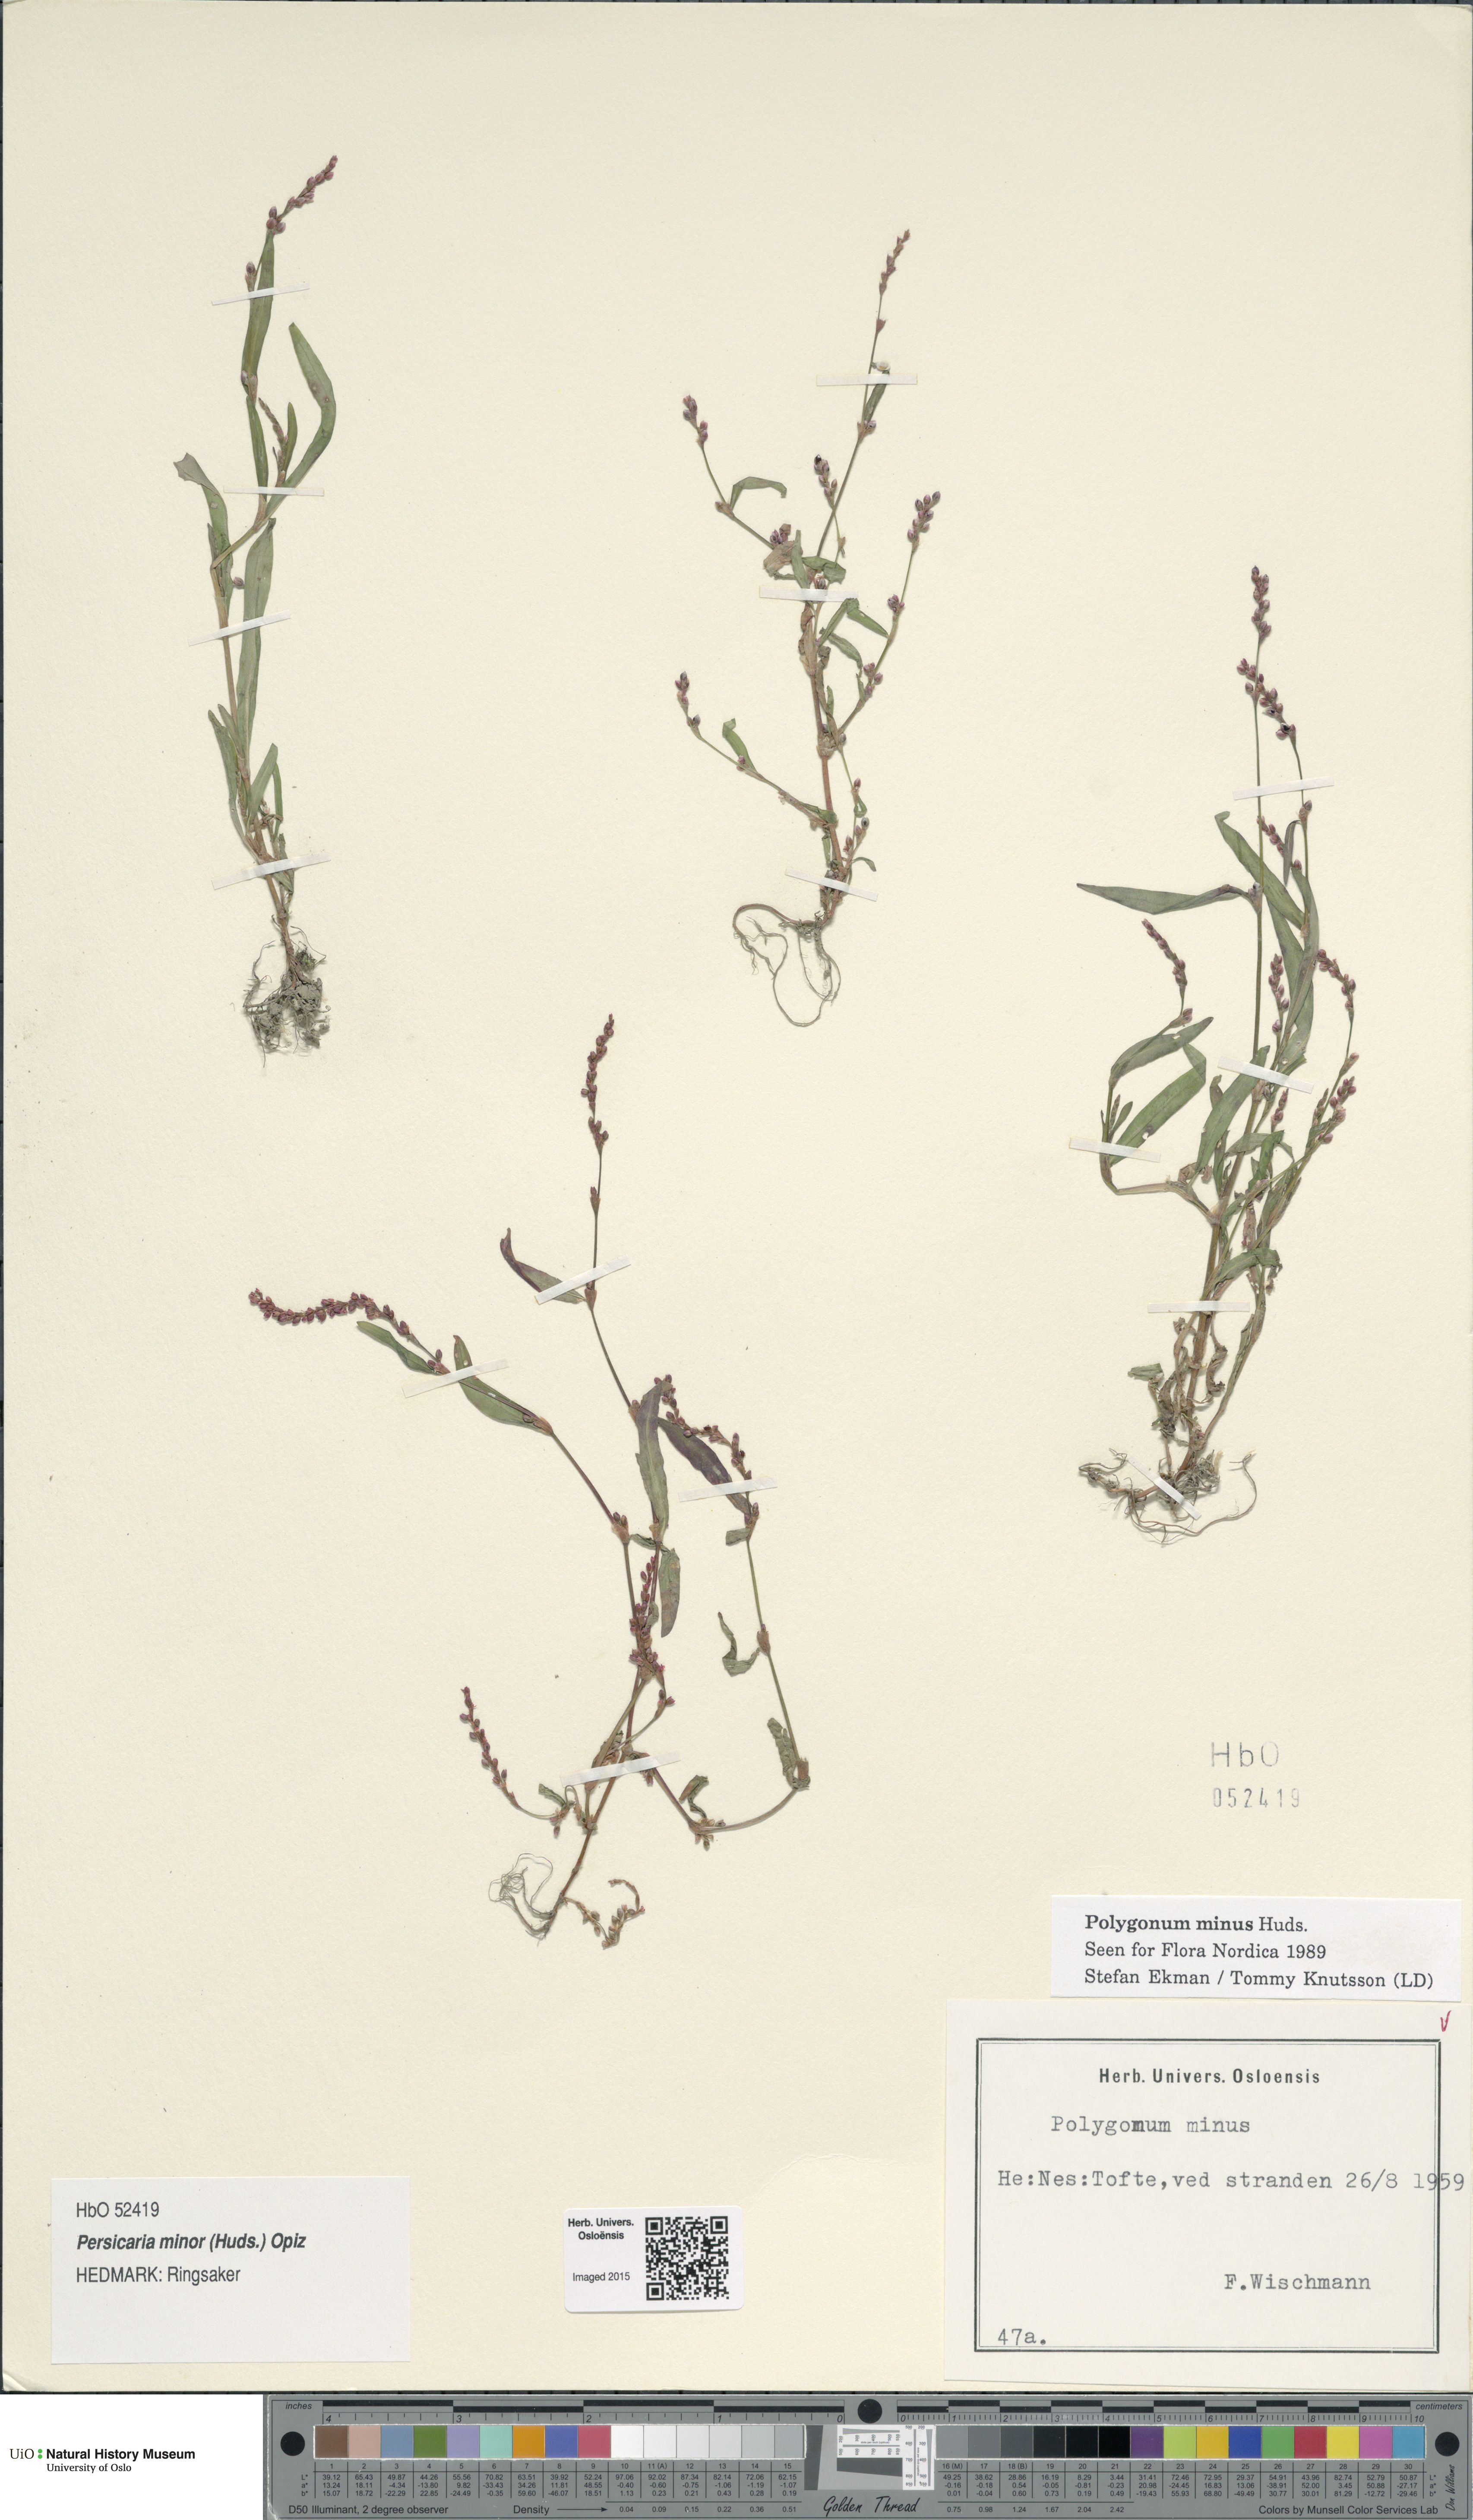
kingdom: Plantae
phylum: Tracheophyta
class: Magnoliopsida
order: Caryophyllales
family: Polygonaceae
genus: Persicaria
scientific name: Persicaria minor
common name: Small water-pepper
